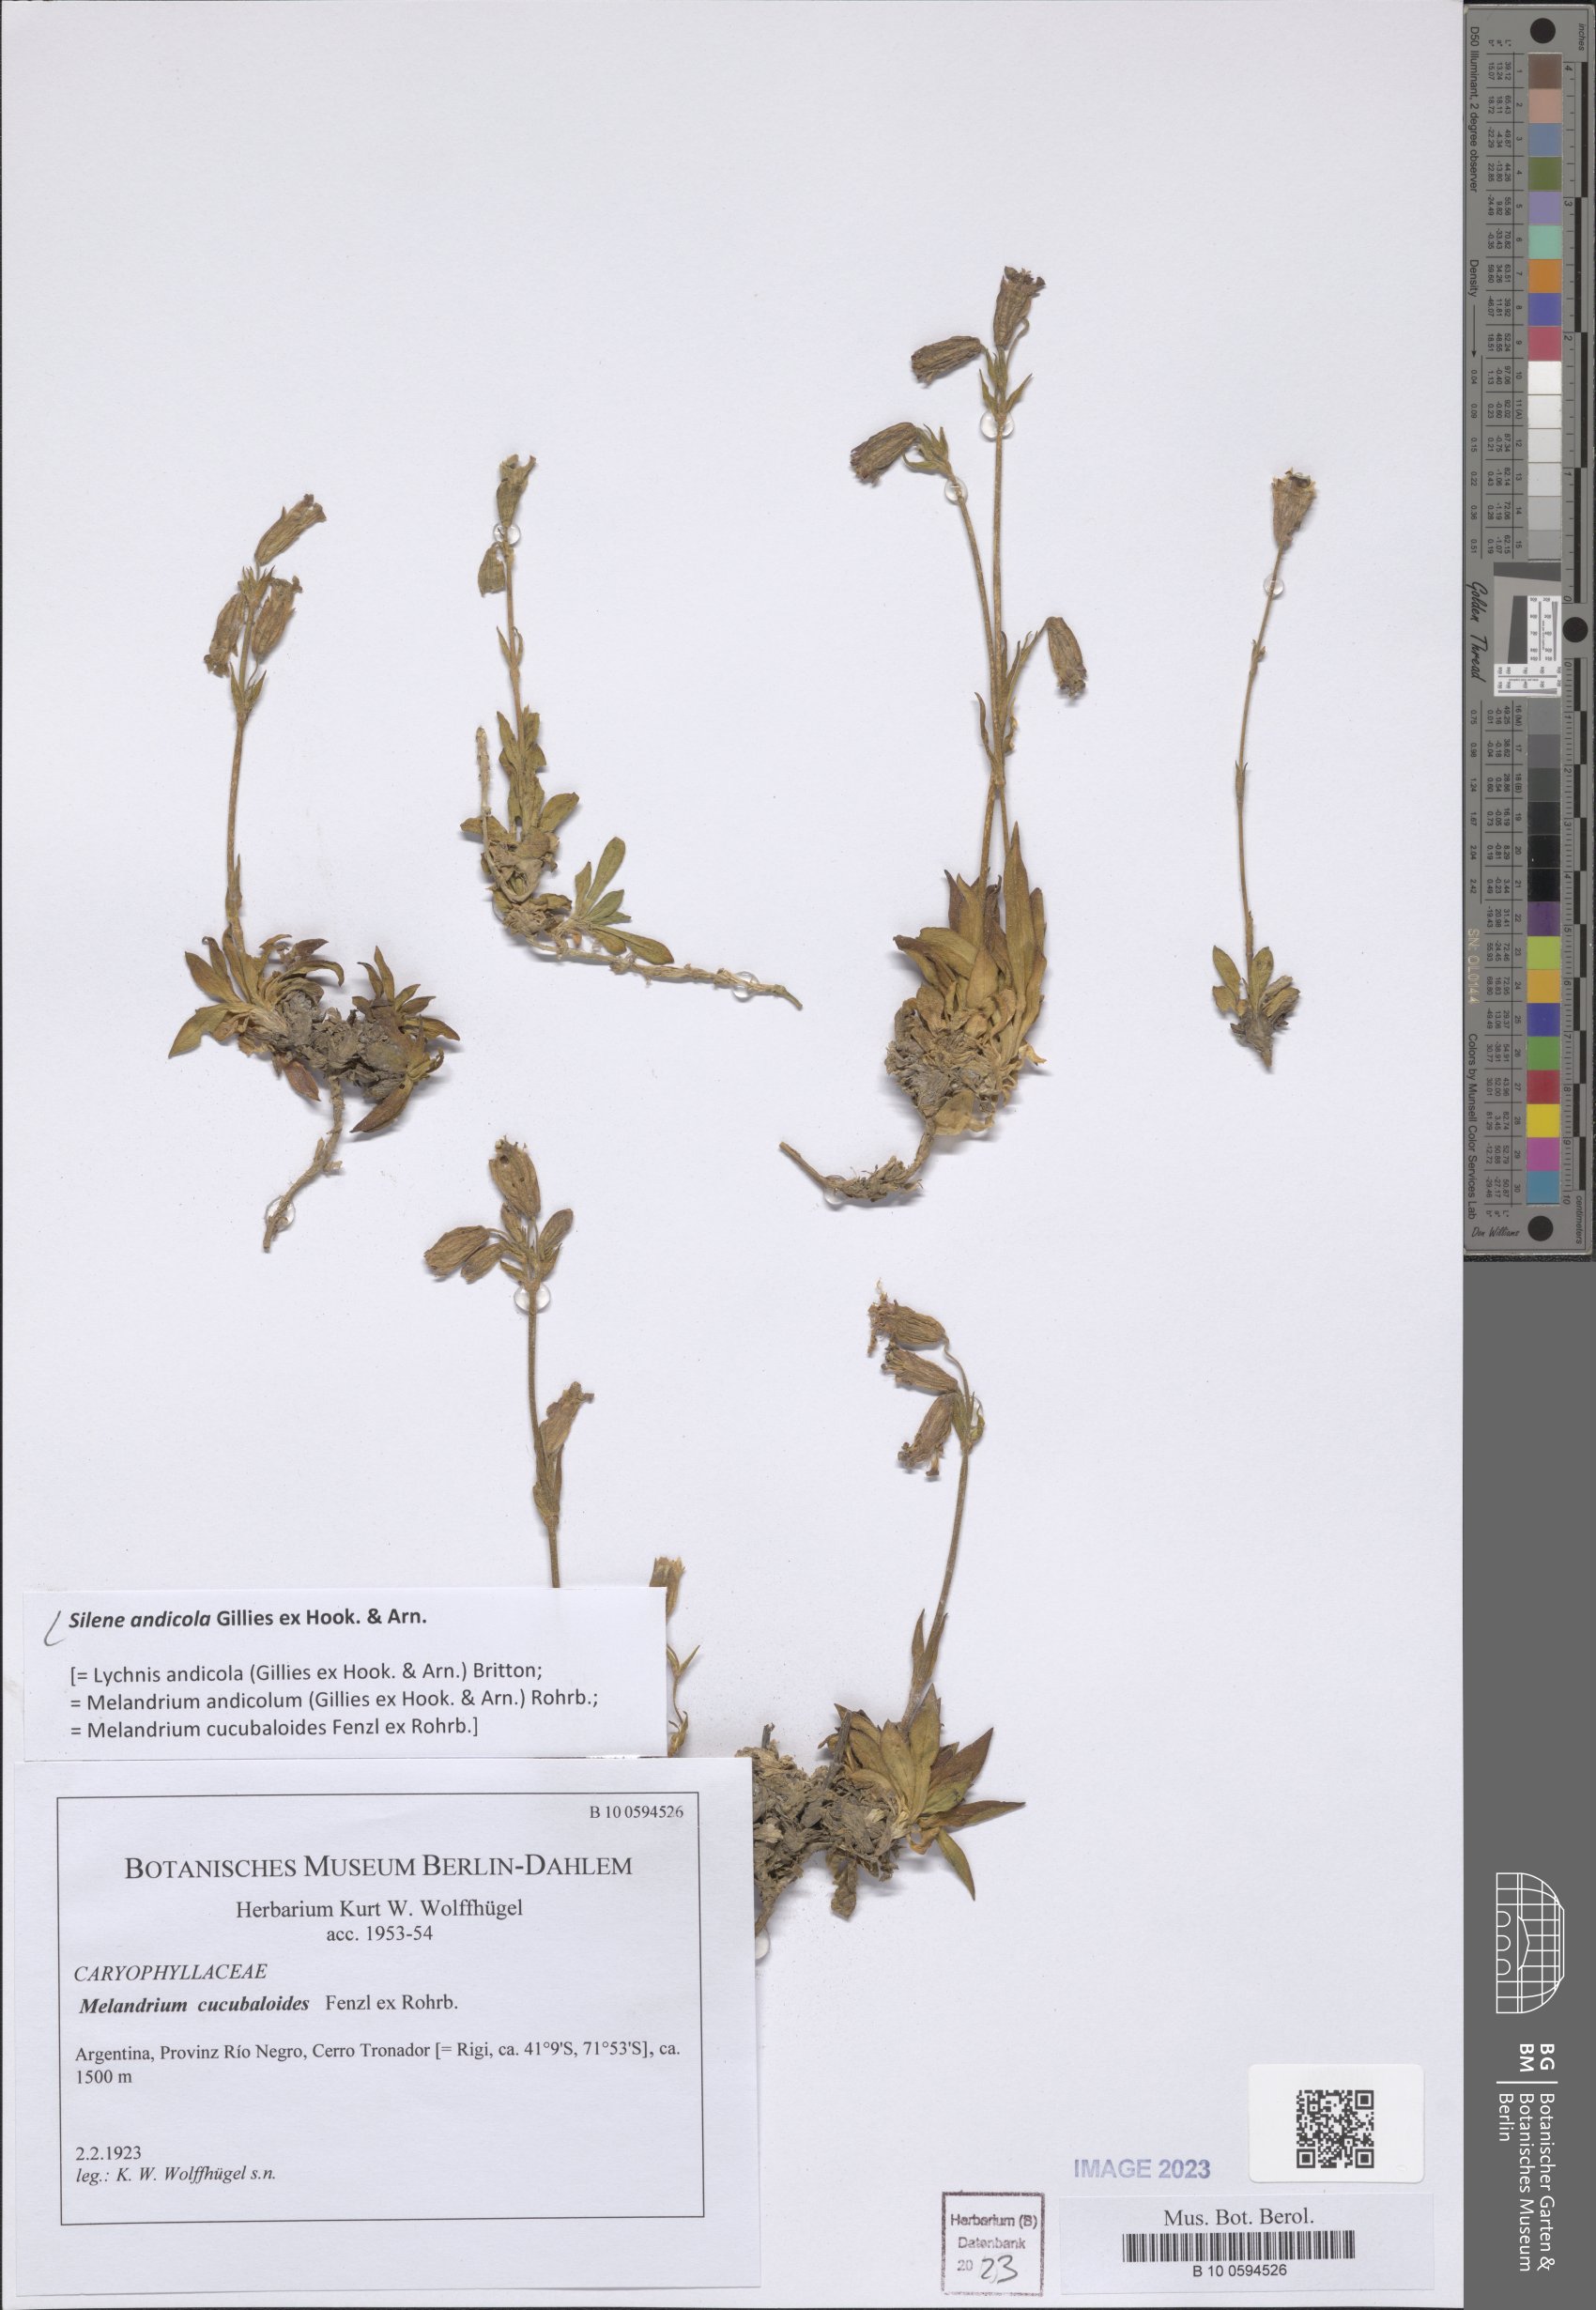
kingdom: Plantae
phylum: Tracheophyta
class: Magnoliopsida
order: Caryophyllales
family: Caryophyllaceae
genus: Silene
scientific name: Silene andicola
